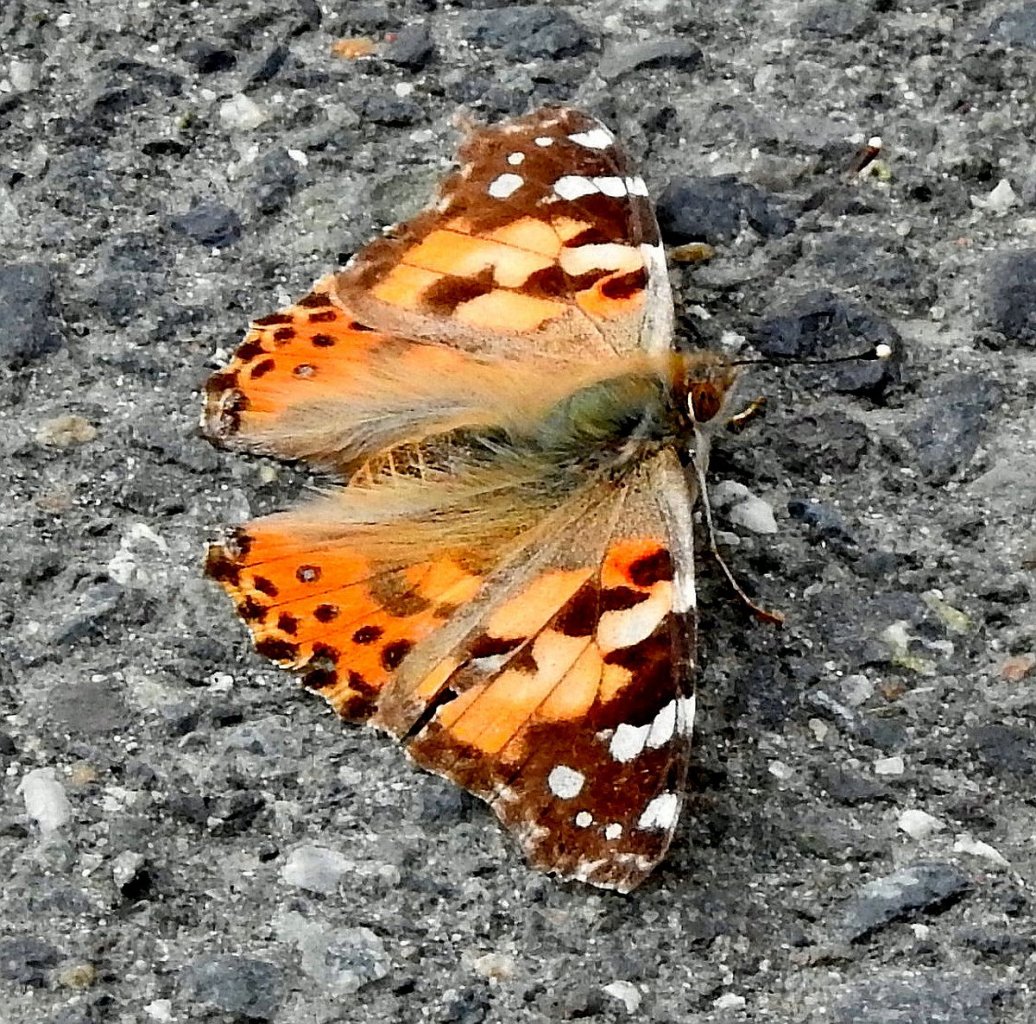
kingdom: Animalia
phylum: Arthropoda
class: Insecta
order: Lepidoptera
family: Nymphalidae
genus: Vanessa
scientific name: Vanessa cardui
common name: Painted Lady
